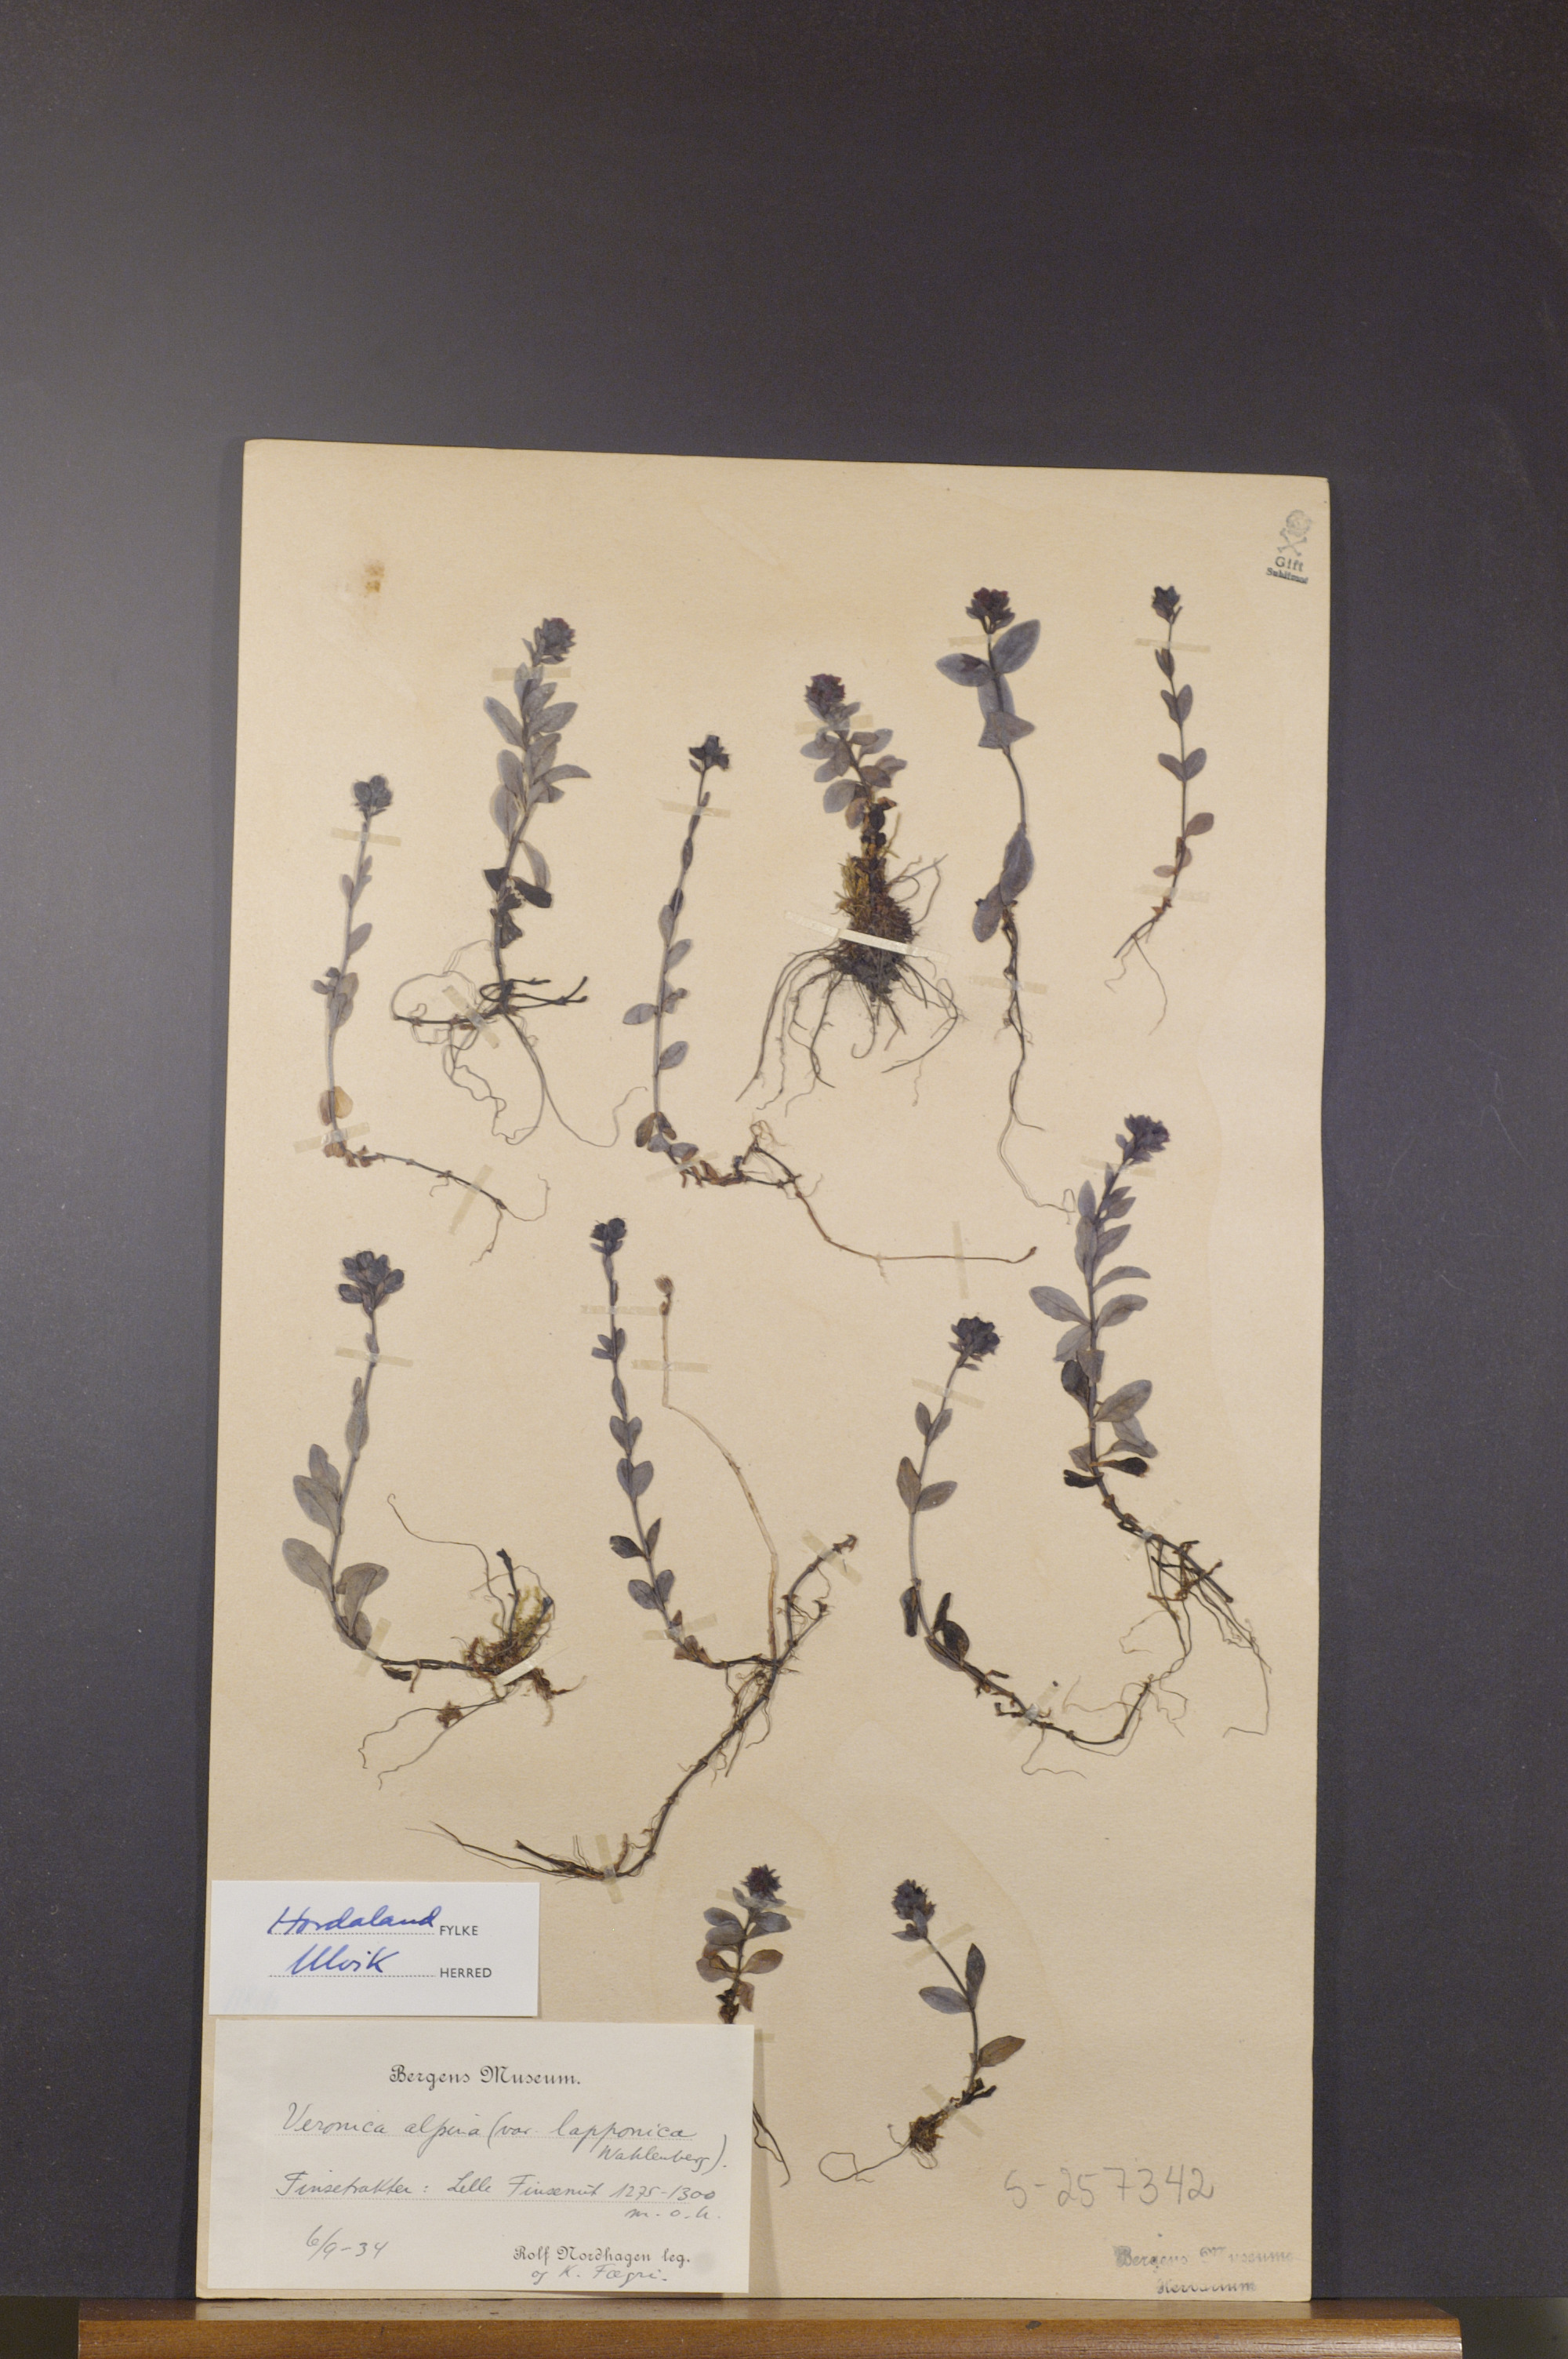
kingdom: Plantae
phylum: Tracheophyta
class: Magnoliopsida
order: Lamiales
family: Plantaginaceae
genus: Veronica
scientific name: Veronica alpina
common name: Alpine speedwell
